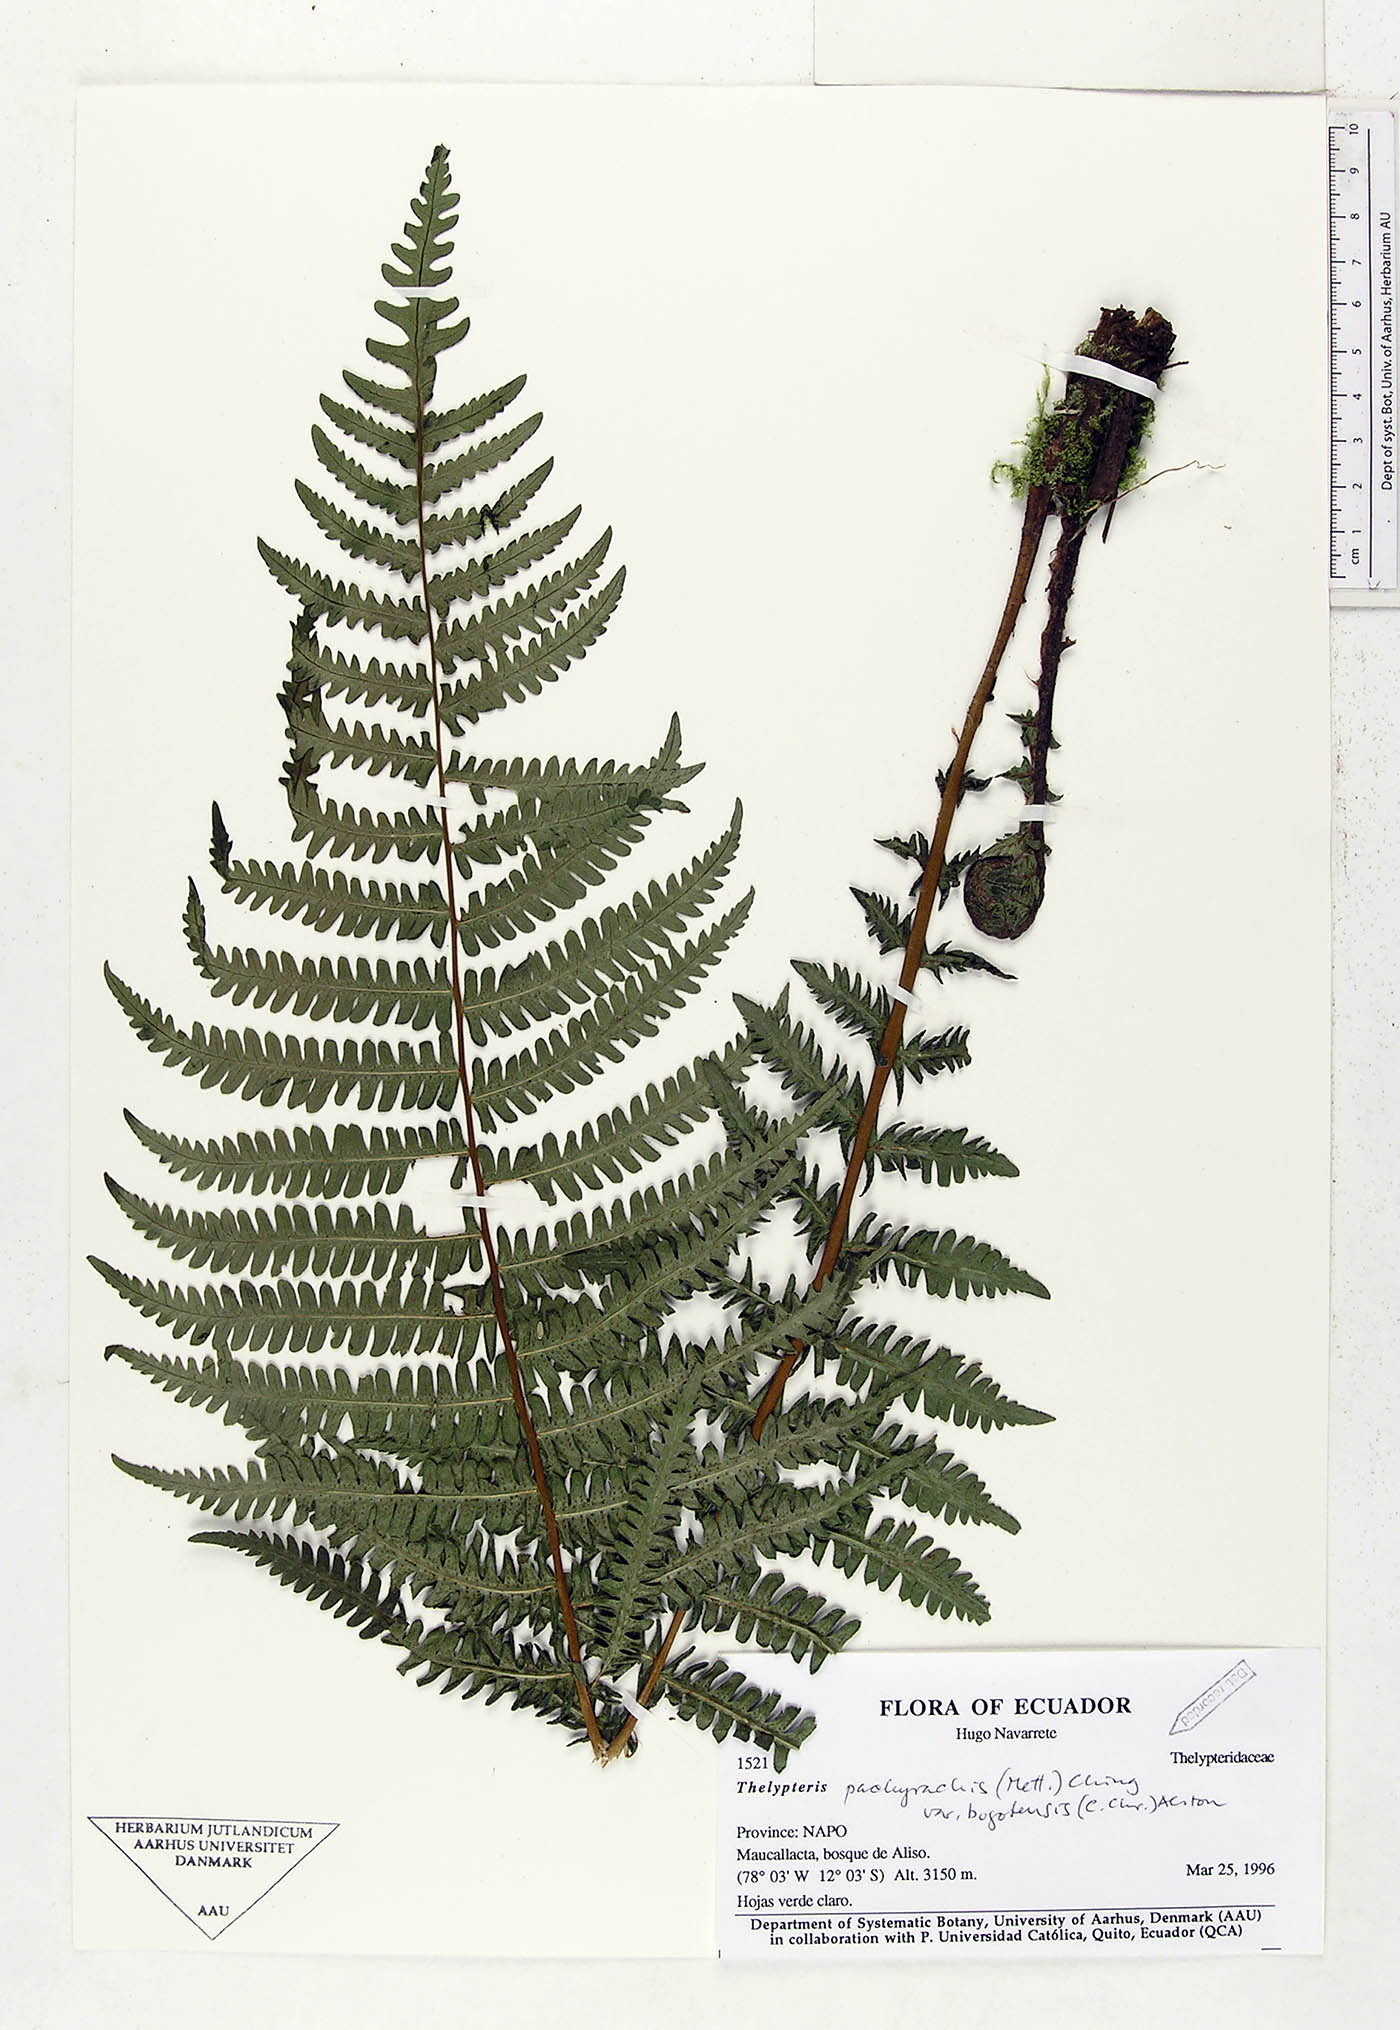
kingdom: Plantae
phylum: Tracheophyta
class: Polypodiopsida
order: Polypodiales
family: Thelypteridaceae
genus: Amauropelta
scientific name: Amauropelta pachyrhachis
